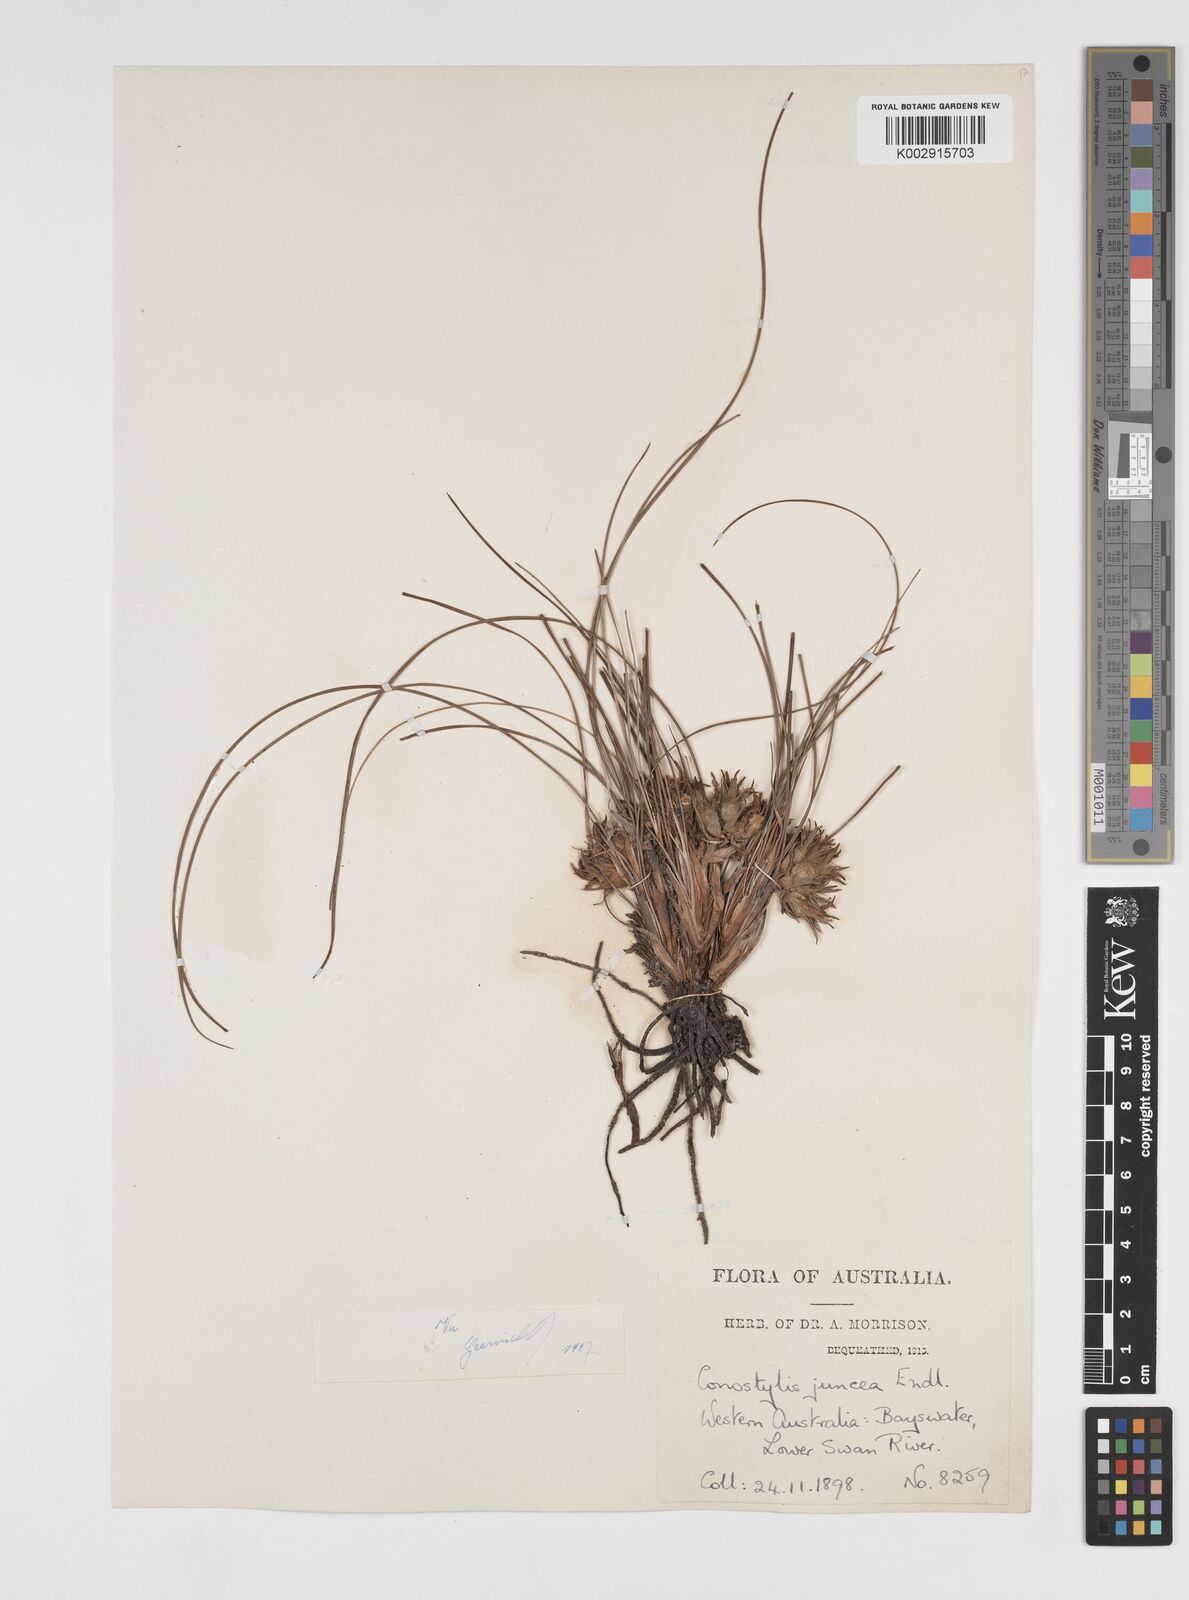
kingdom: Plantae
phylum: Tracheophyta
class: Liliopsida
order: Commelinales
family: Haemodoraceae
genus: Conostylis
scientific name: Conostylis juncea
